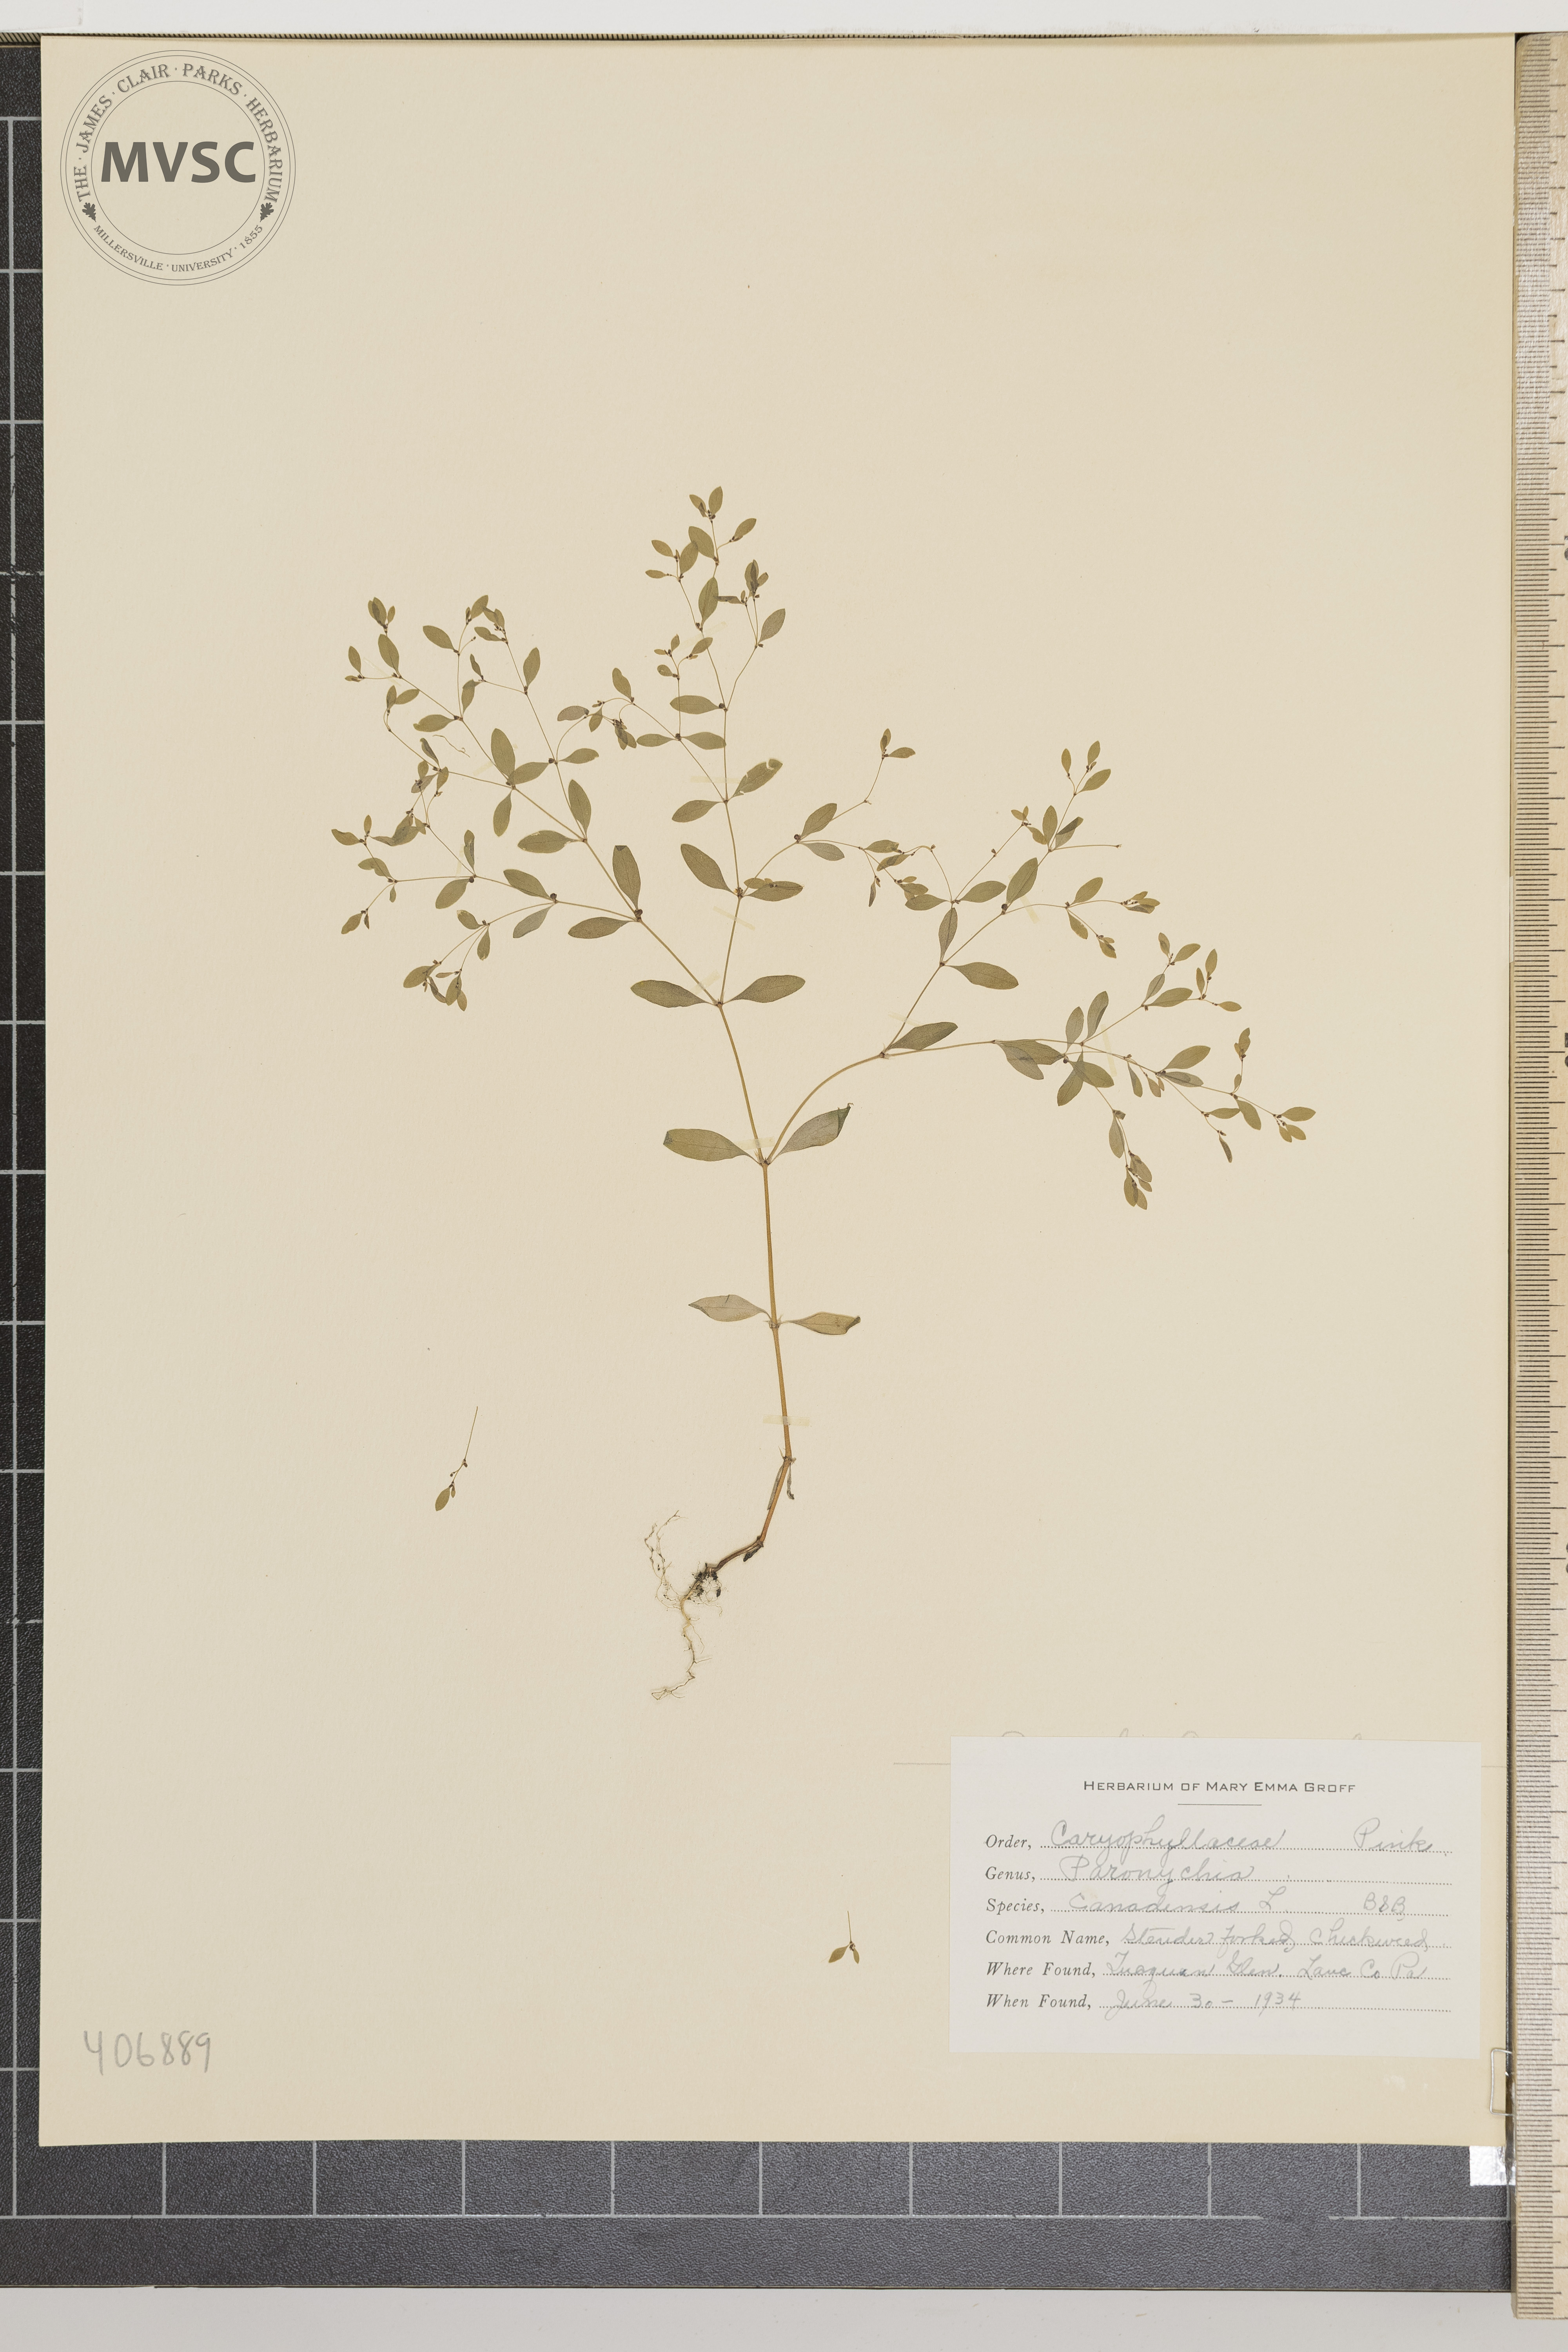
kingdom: Plantae
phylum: Tracheophyta
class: Magnoliopsida
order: Caryophyllales
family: Caryophyllaceae
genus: Paronychia
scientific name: Paronychia canadensis
